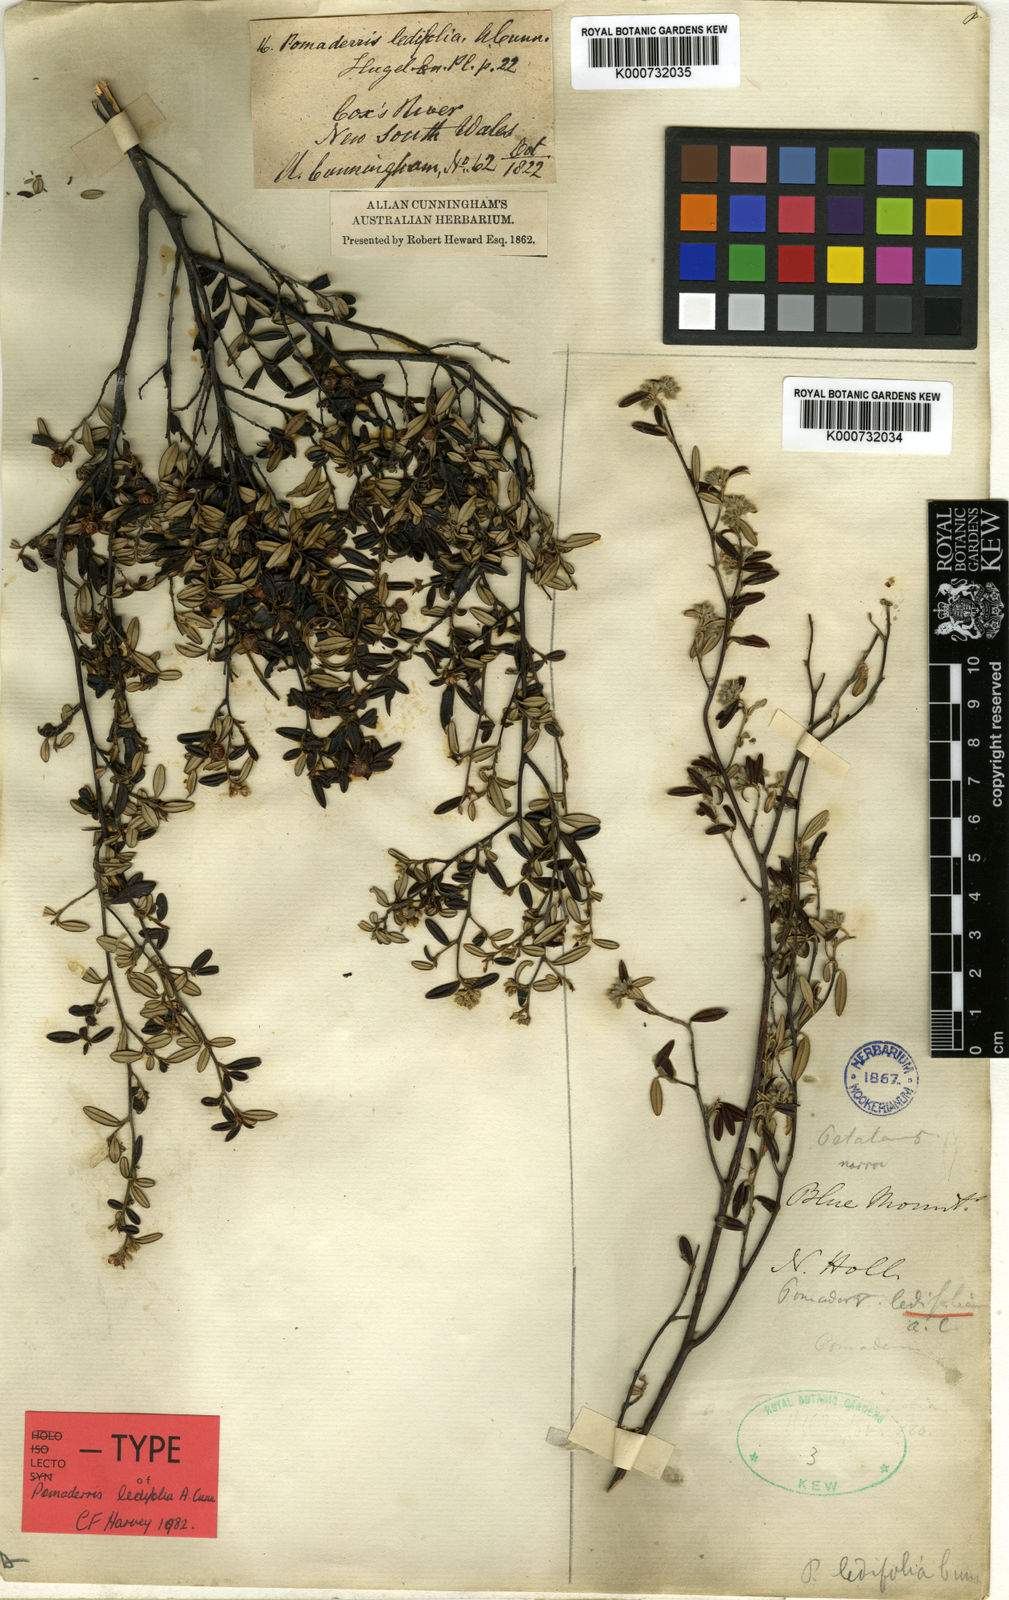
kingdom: Plantae
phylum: Tracheophyta
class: Magnoliopsida
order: Rosales
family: Rhamnaceae
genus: Pomaderris
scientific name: Pomaderris ledifolia
